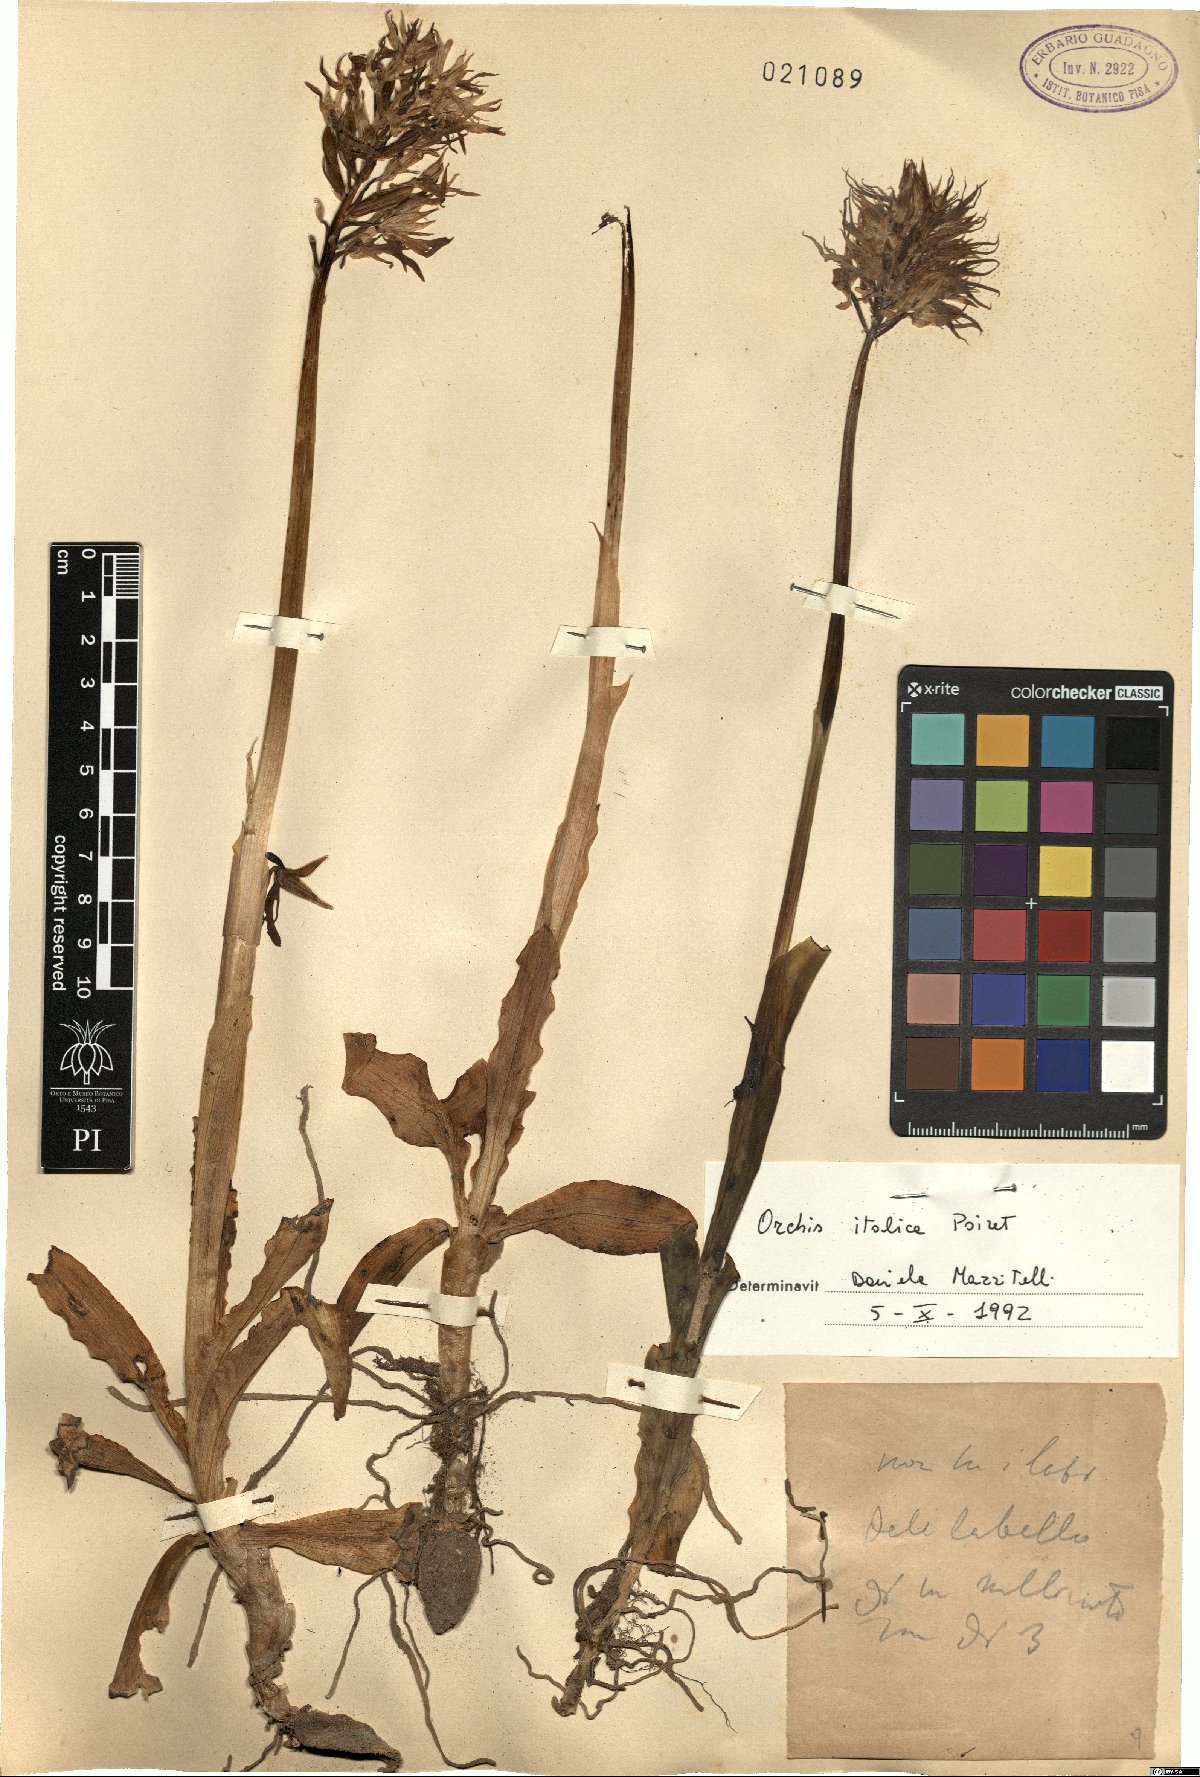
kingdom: Plantae
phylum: Tracheophyta
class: Liliopsida
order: Asparagales
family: Orchidaceae
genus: Orchis
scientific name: Orchis italica
